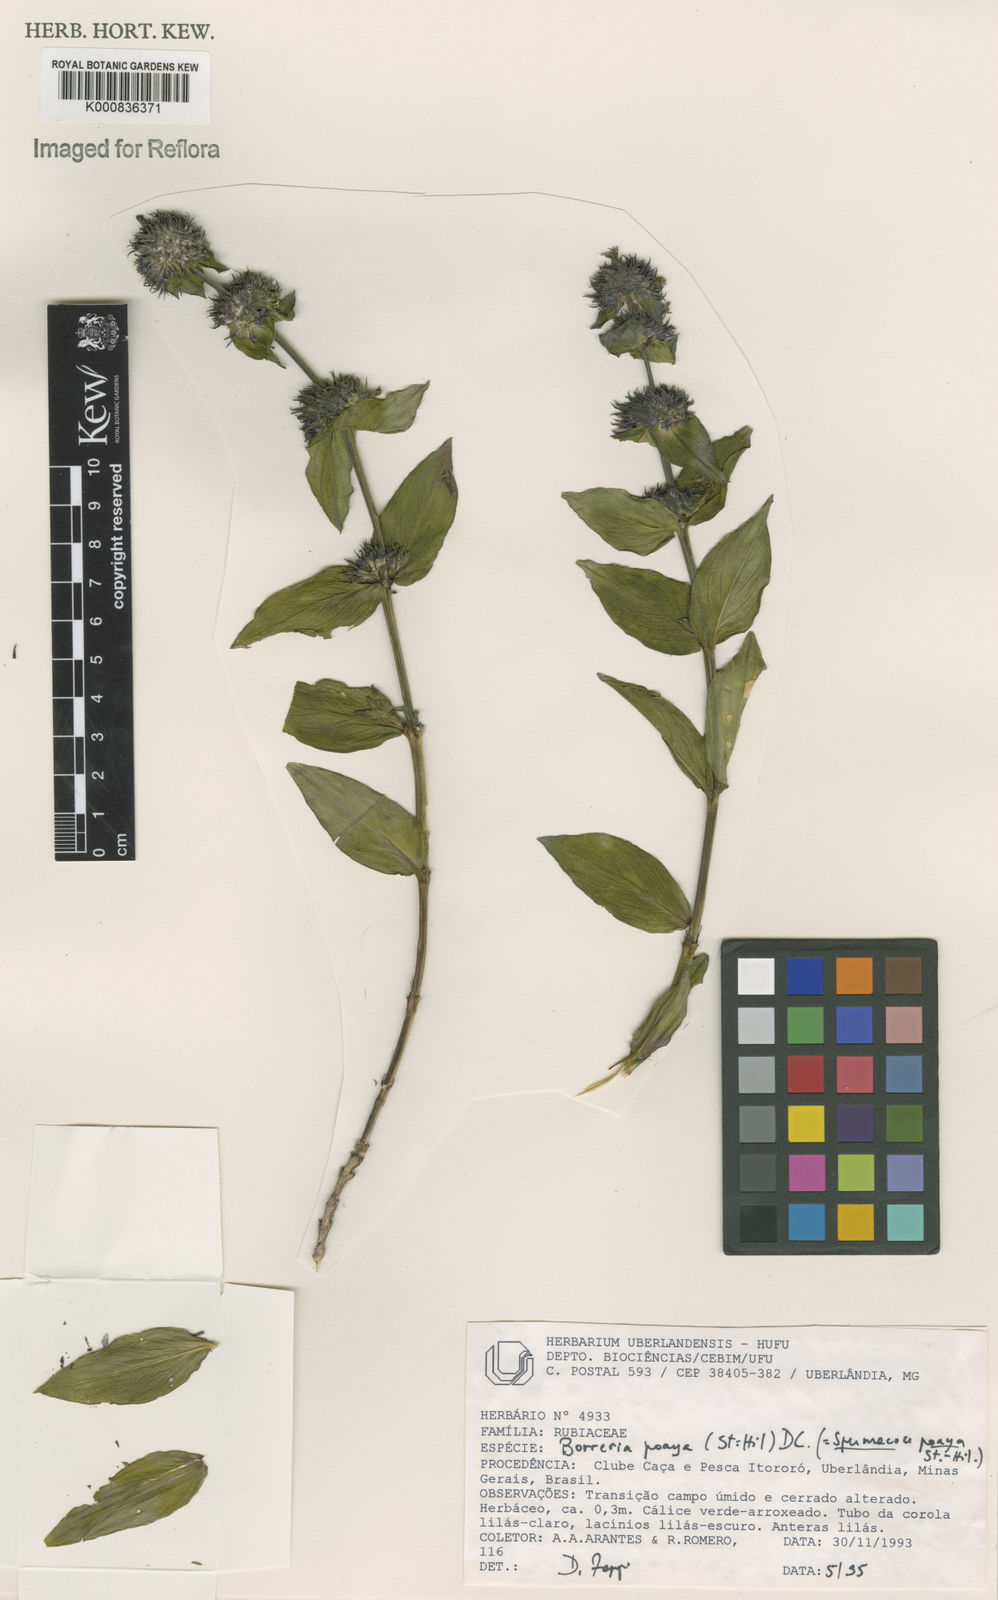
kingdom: Plantae
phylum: Tracheophyta
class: Magnoliopsida
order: Gentianales
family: Rubiaceae
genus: Spermacoce
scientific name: Spermacoce poaya
